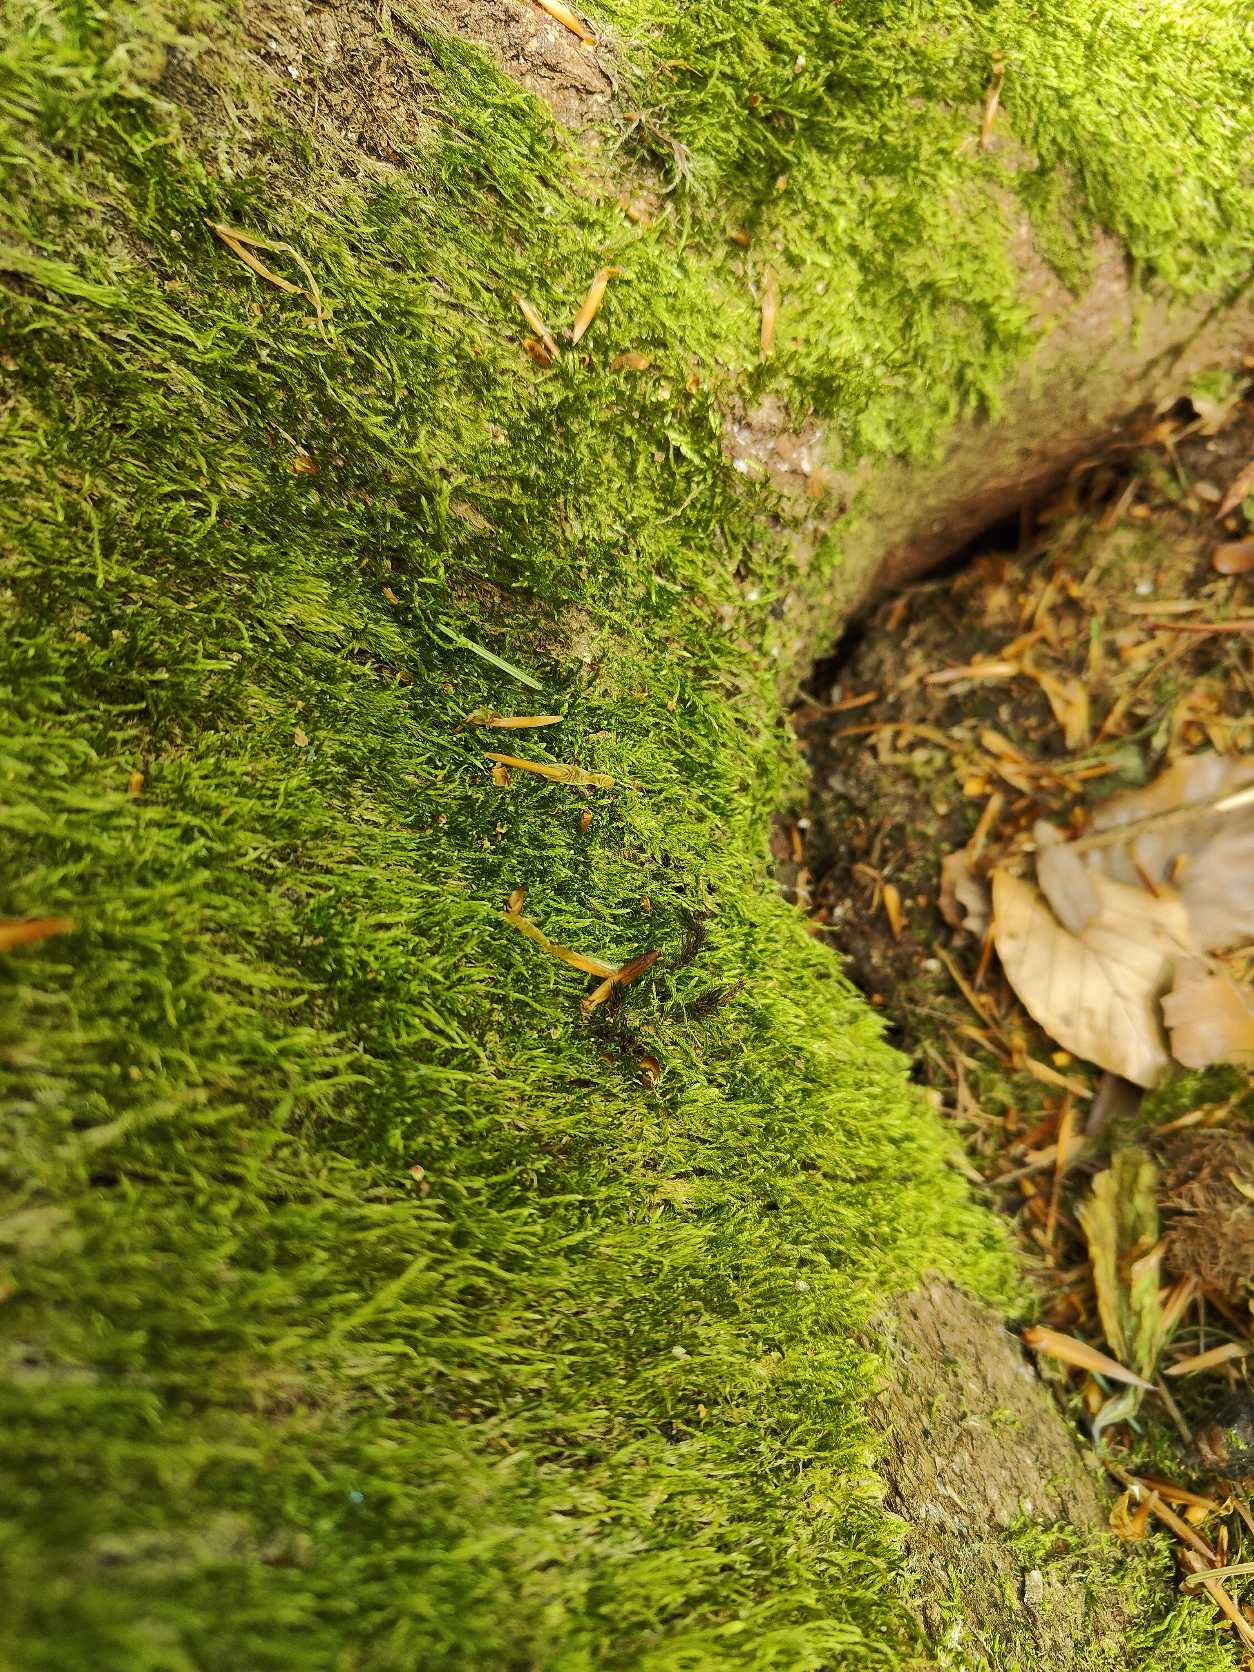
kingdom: Plantae
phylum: Bryophyta
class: Bryopsida
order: Hypnales
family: Hypnaceae
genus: Hypnum
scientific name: Hypnum
